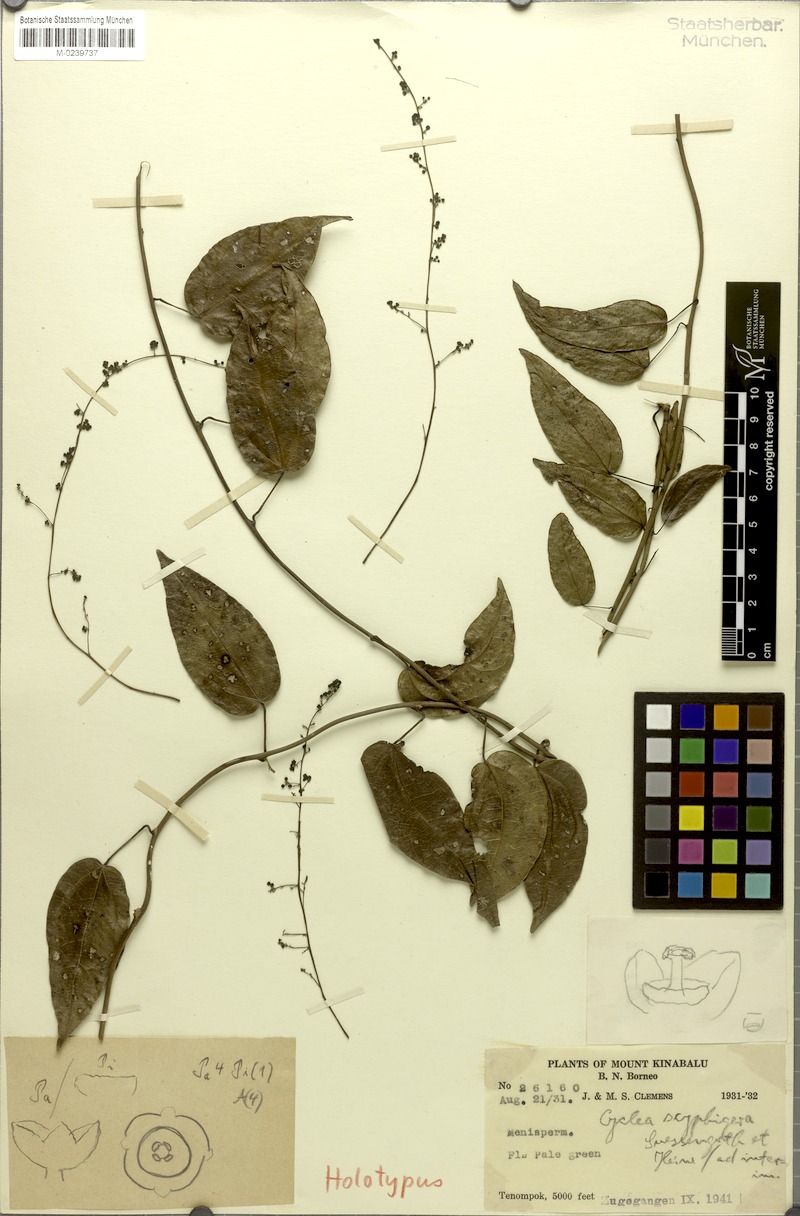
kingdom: Plantae
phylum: Tracheophyta
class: Magnoliopsida
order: Ranunculales
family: Menispermaceae
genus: Cyclea
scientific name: Cyclea elegans
